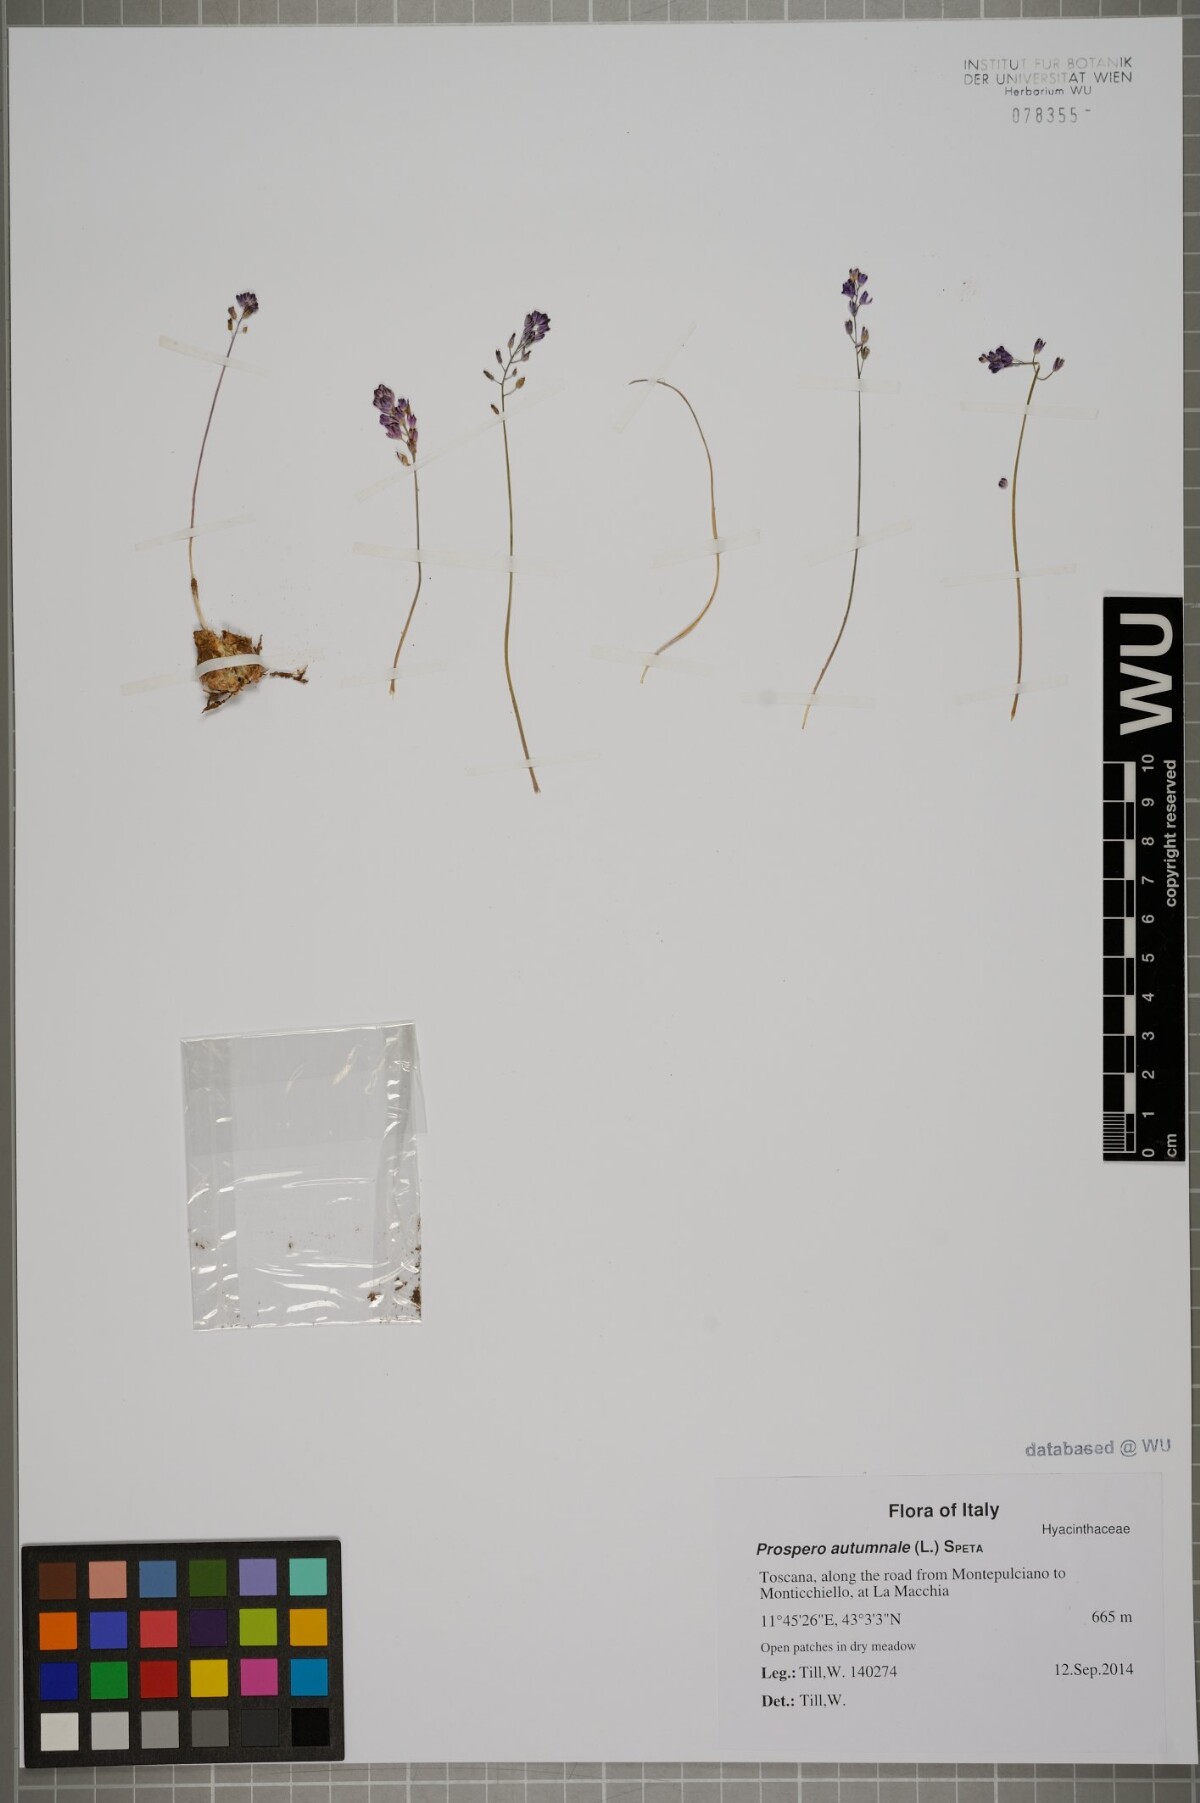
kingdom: Plantae
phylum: Tracheophyta
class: Liliopsida
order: Asparagales
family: Asparagaceae
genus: Prospero
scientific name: Prospero autumnale
